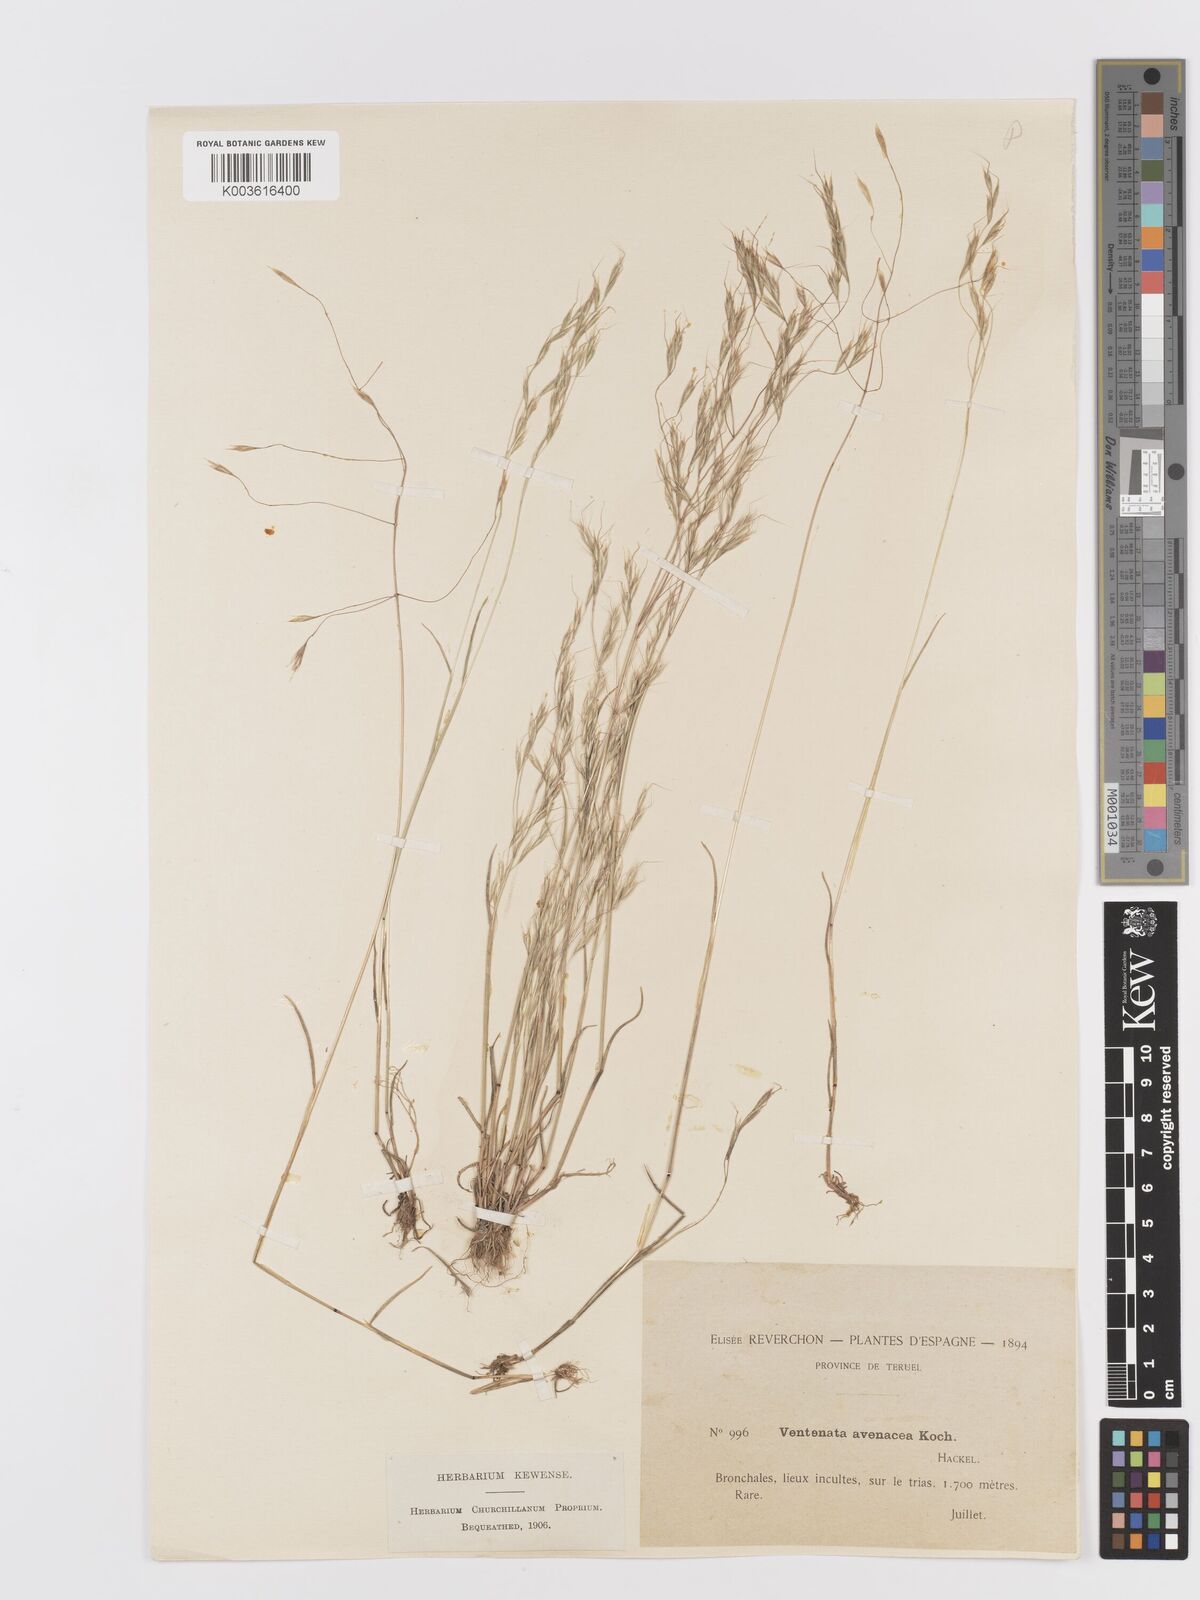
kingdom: Plantae
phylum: Tracheophyta
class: Liliopsida
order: Poales
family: Poaceae
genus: Ventenata
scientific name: Ventenata dubia
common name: North africa grass
